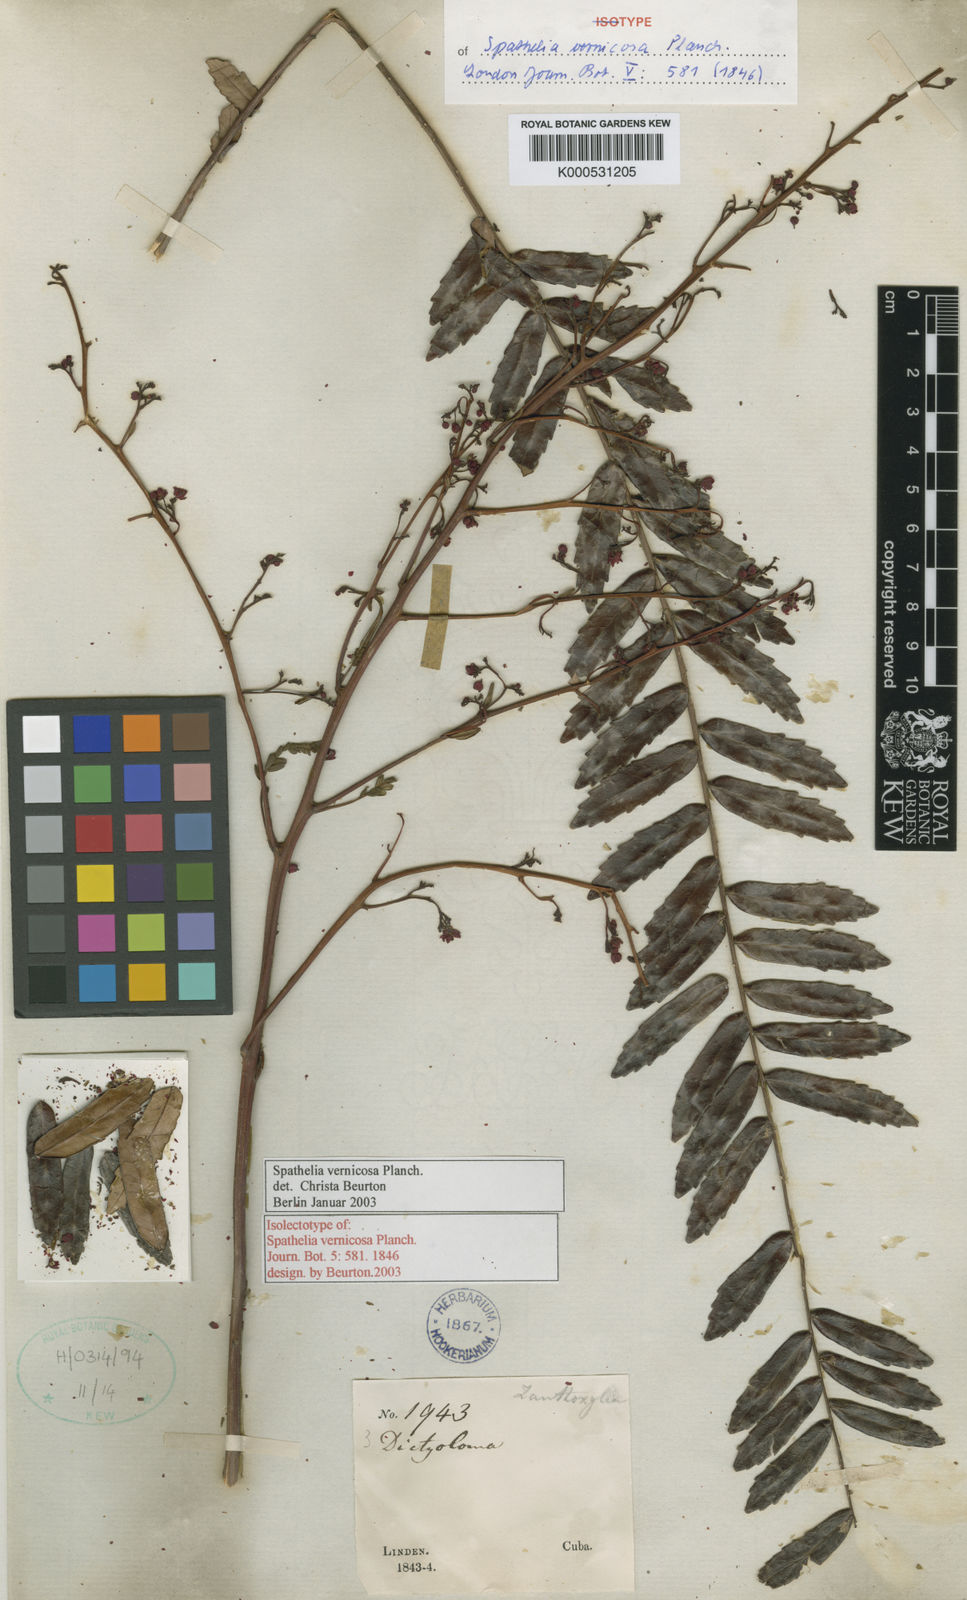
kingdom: Plantae
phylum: Tracheophyta
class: Magnoliopsida
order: Sapindales
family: Rutaceae
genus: Spathelia
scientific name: Spathelia vernicosa
